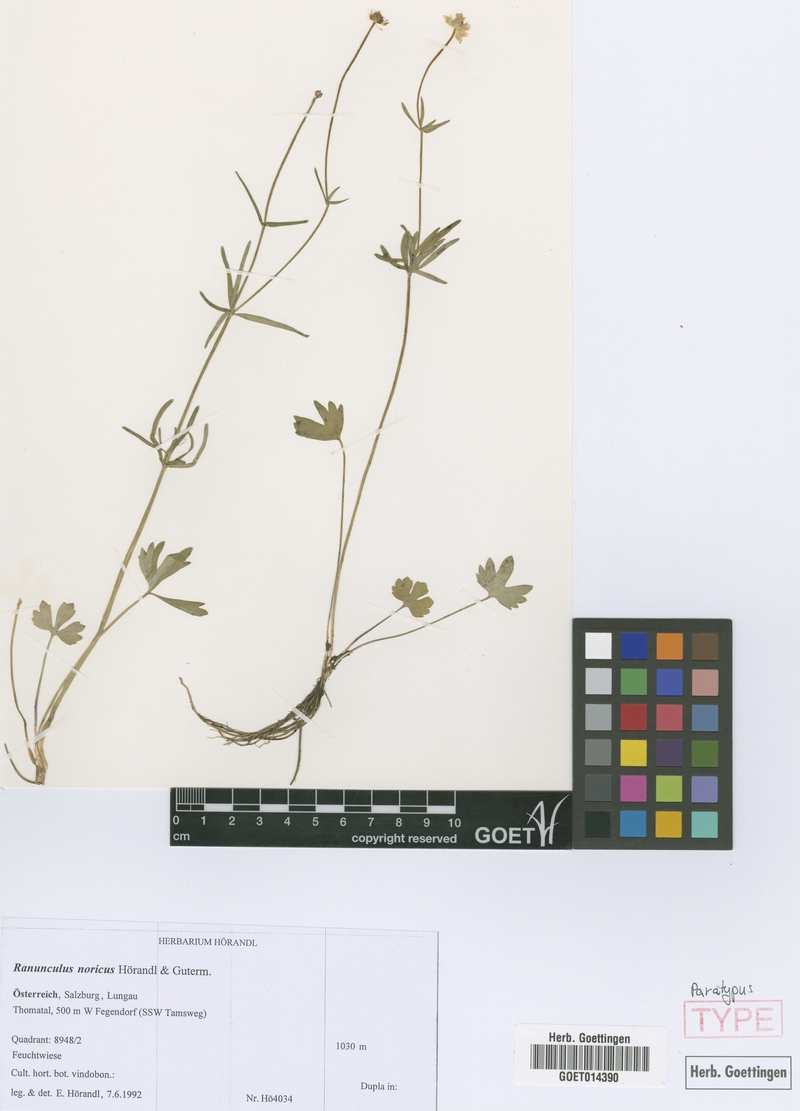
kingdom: Plantae
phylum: Tracheophyta
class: Magnoliopsida
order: Ranunculales
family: Ranunculaceae
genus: Ranunculus
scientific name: Ranunculus noricus
